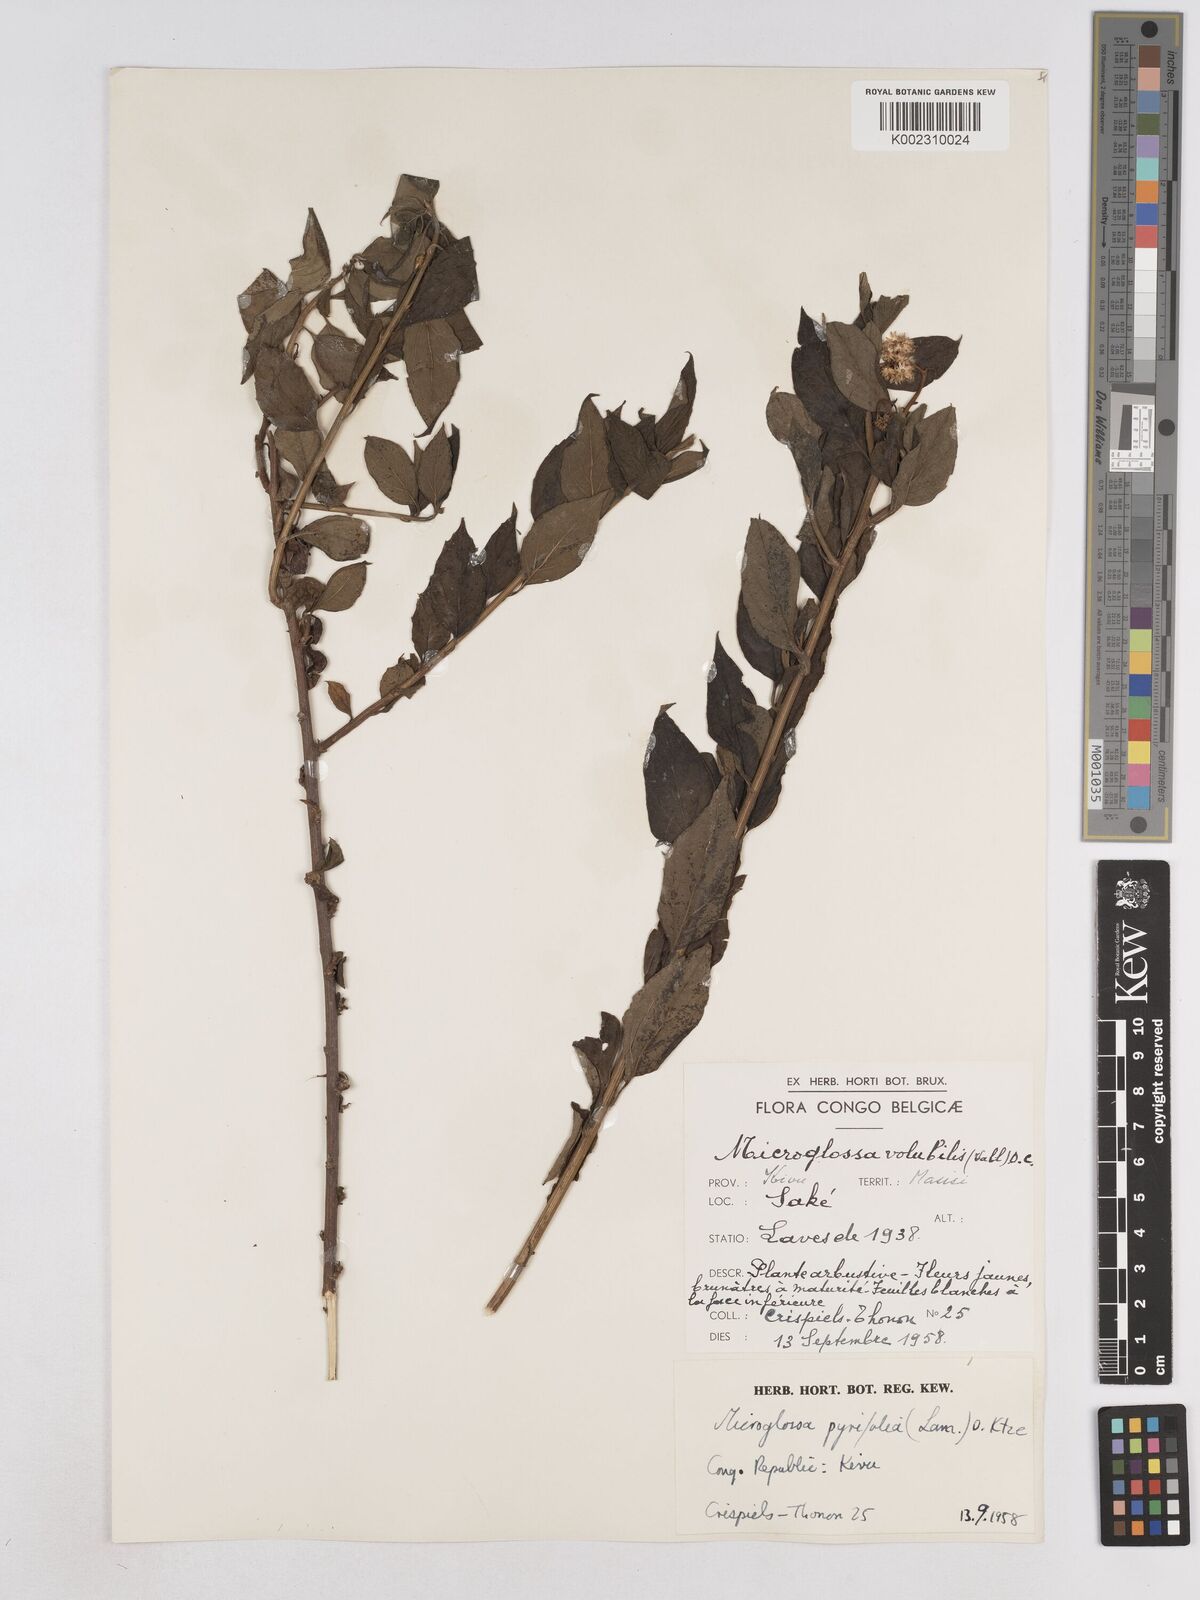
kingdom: Plantae
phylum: Tracheophyta
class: Magnoliopsida
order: Asterales
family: Asteraceae
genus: Microglossa
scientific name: Microglossa pyrifolia
